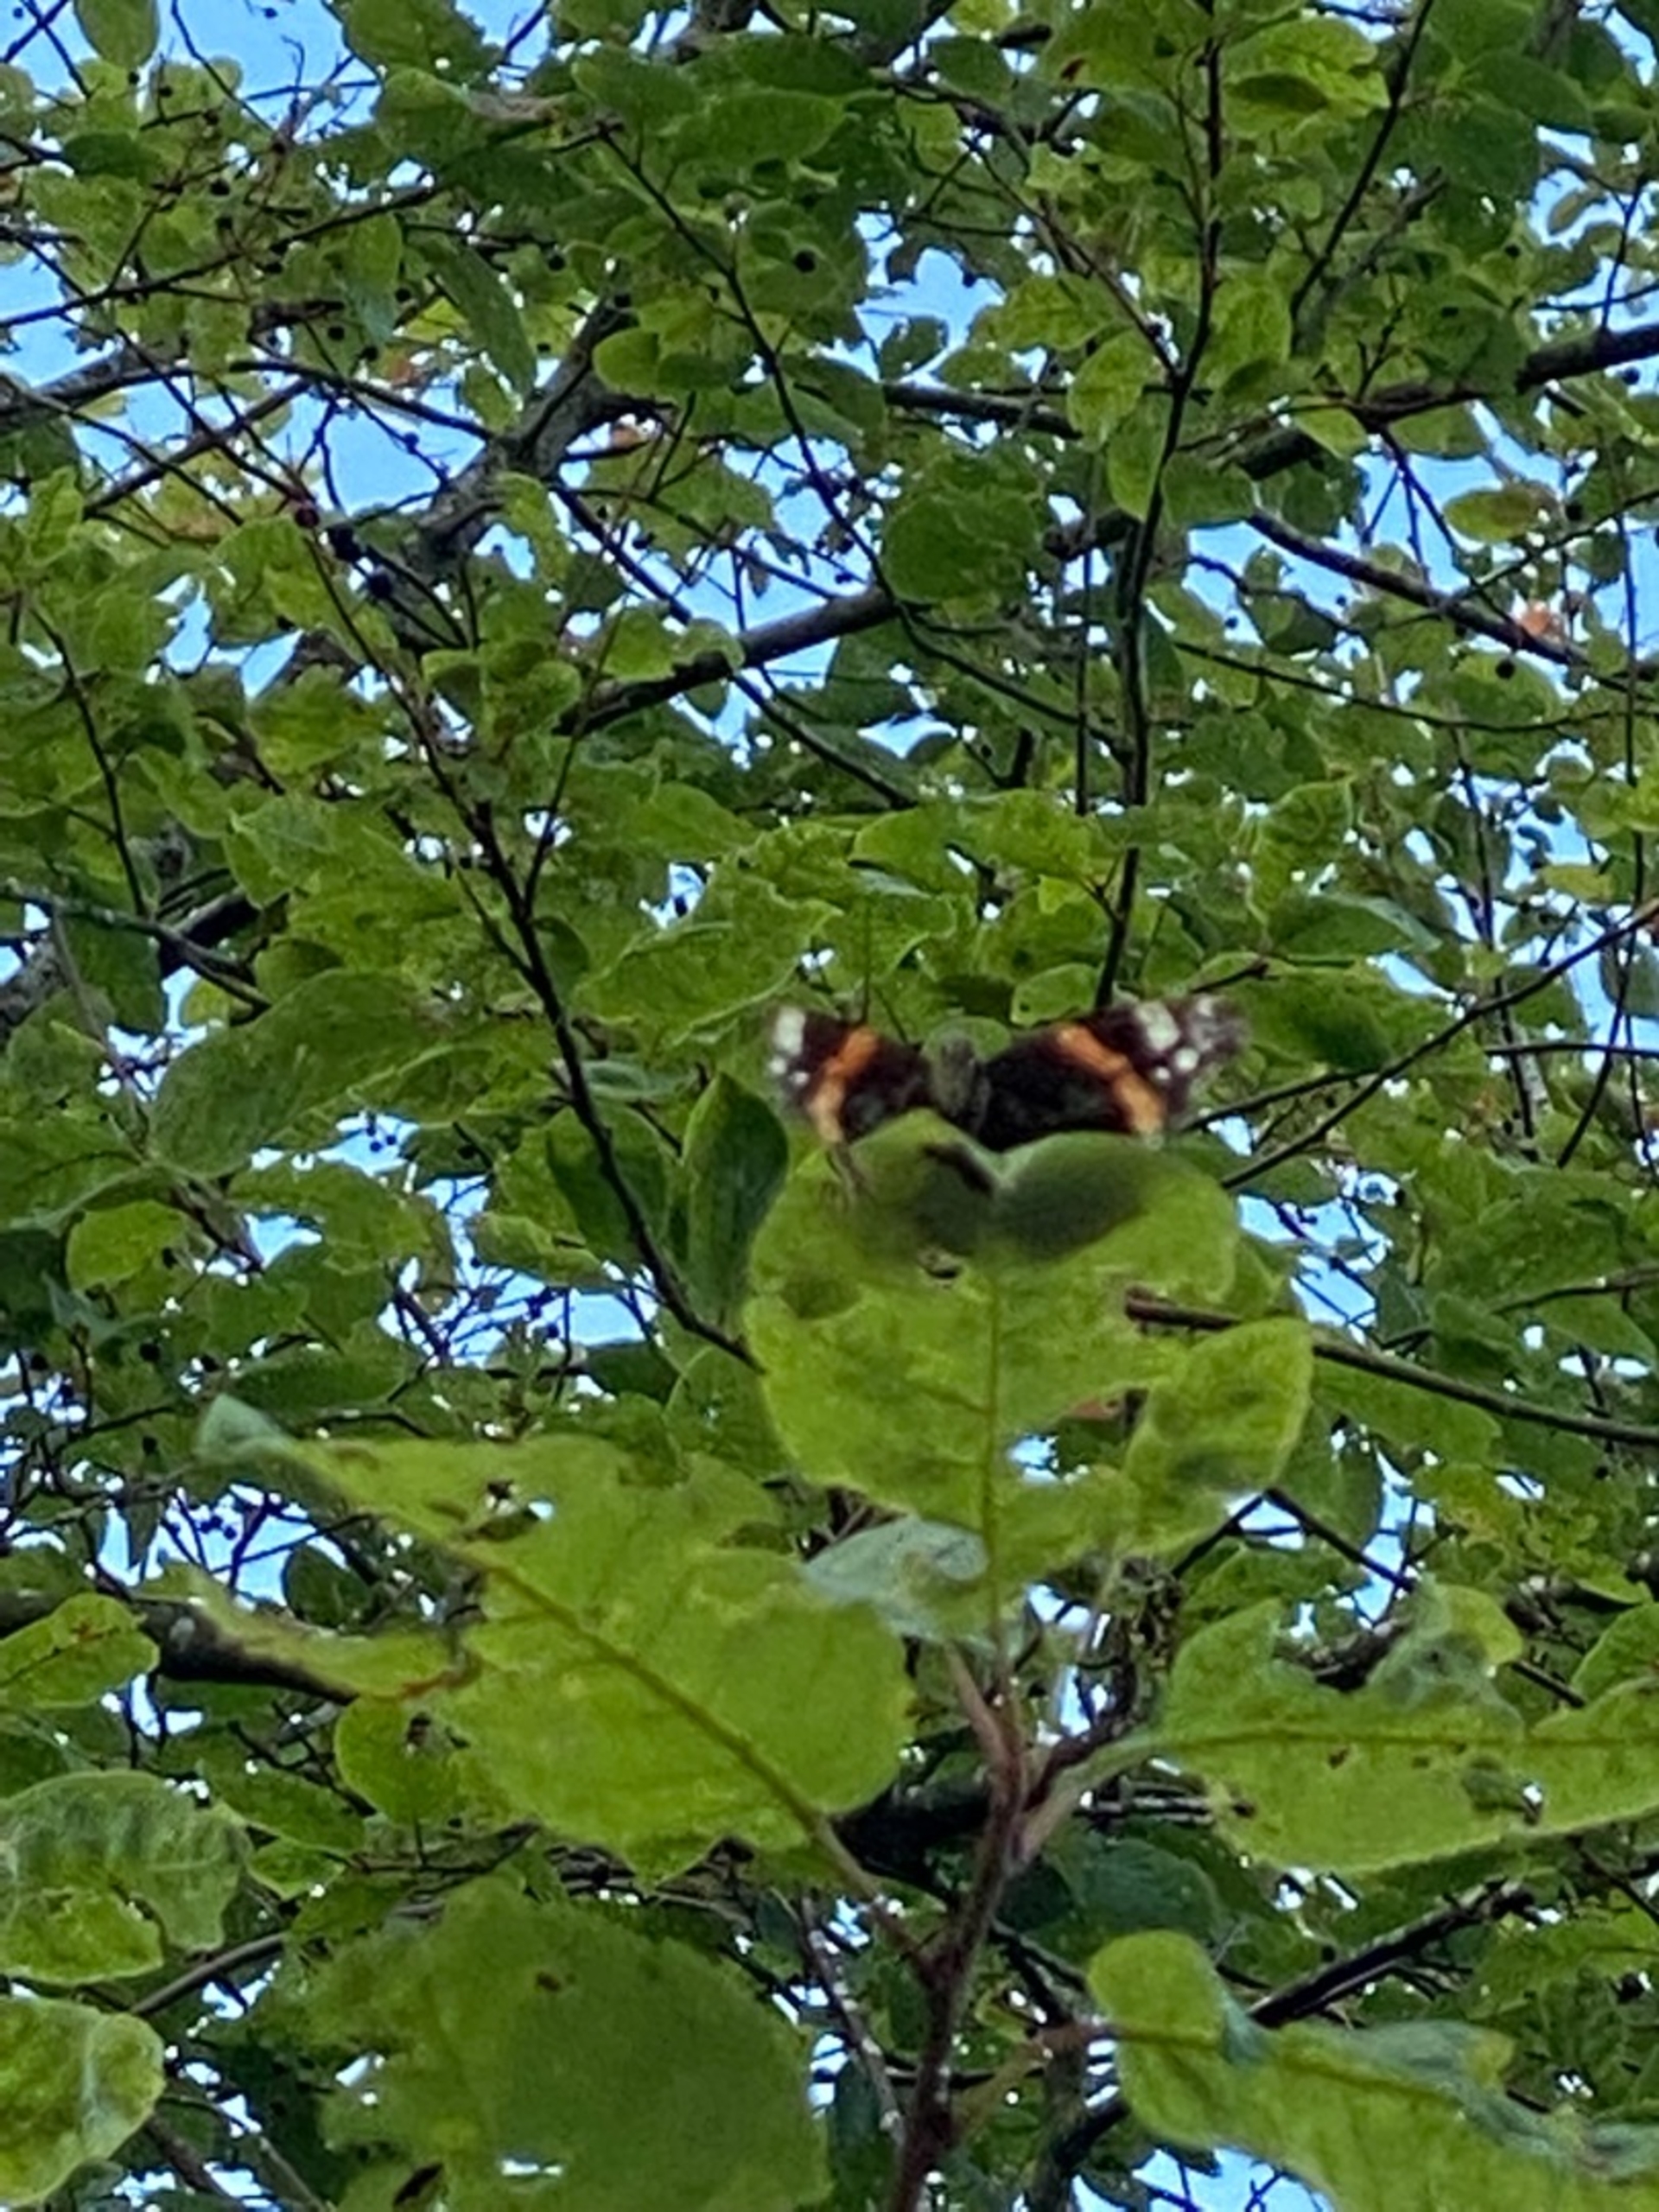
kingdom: Animalia
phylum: Arthropoda
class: Insecta
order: Lepidoptera
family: Nymphalidae
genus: Vanessa
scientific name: Vanessa atalanta
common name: Admiral
